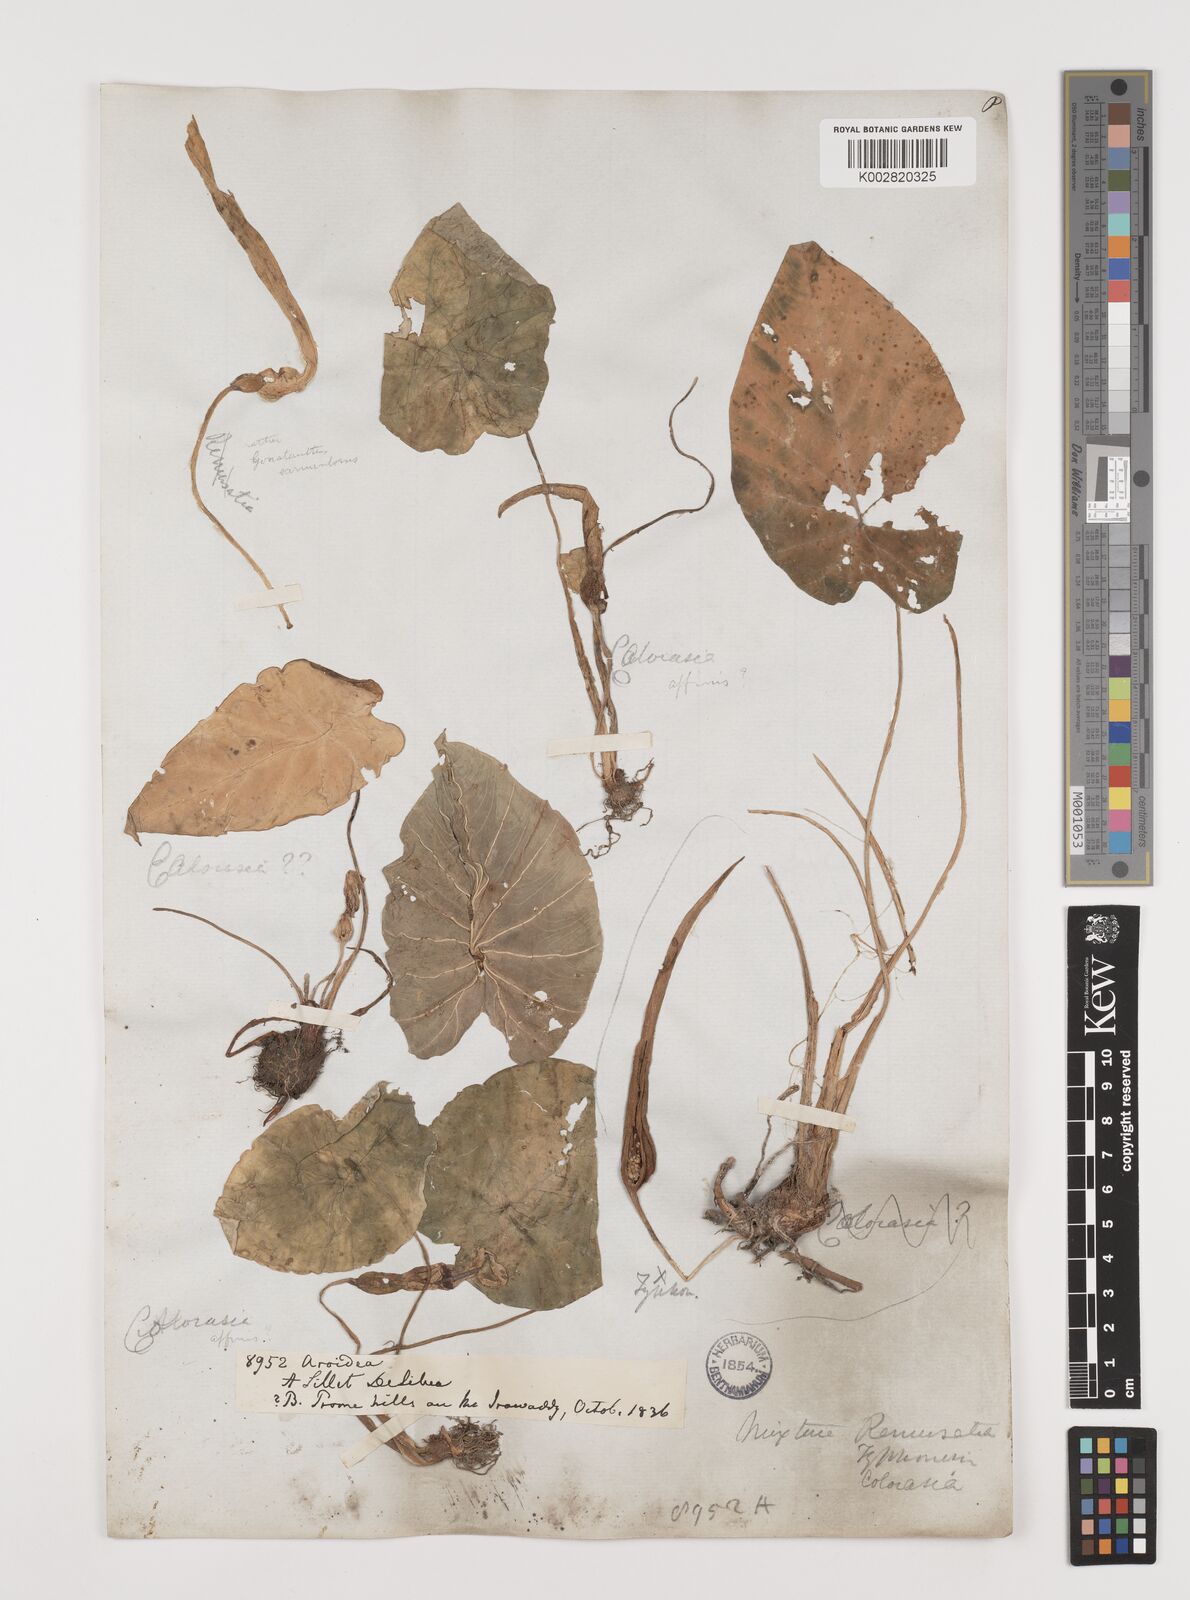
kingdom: Plantae
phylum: Tracheophyta
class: Liliopsida
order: Alismatales
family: Araceae
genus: Colocasia
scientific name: Colocasia affinis
